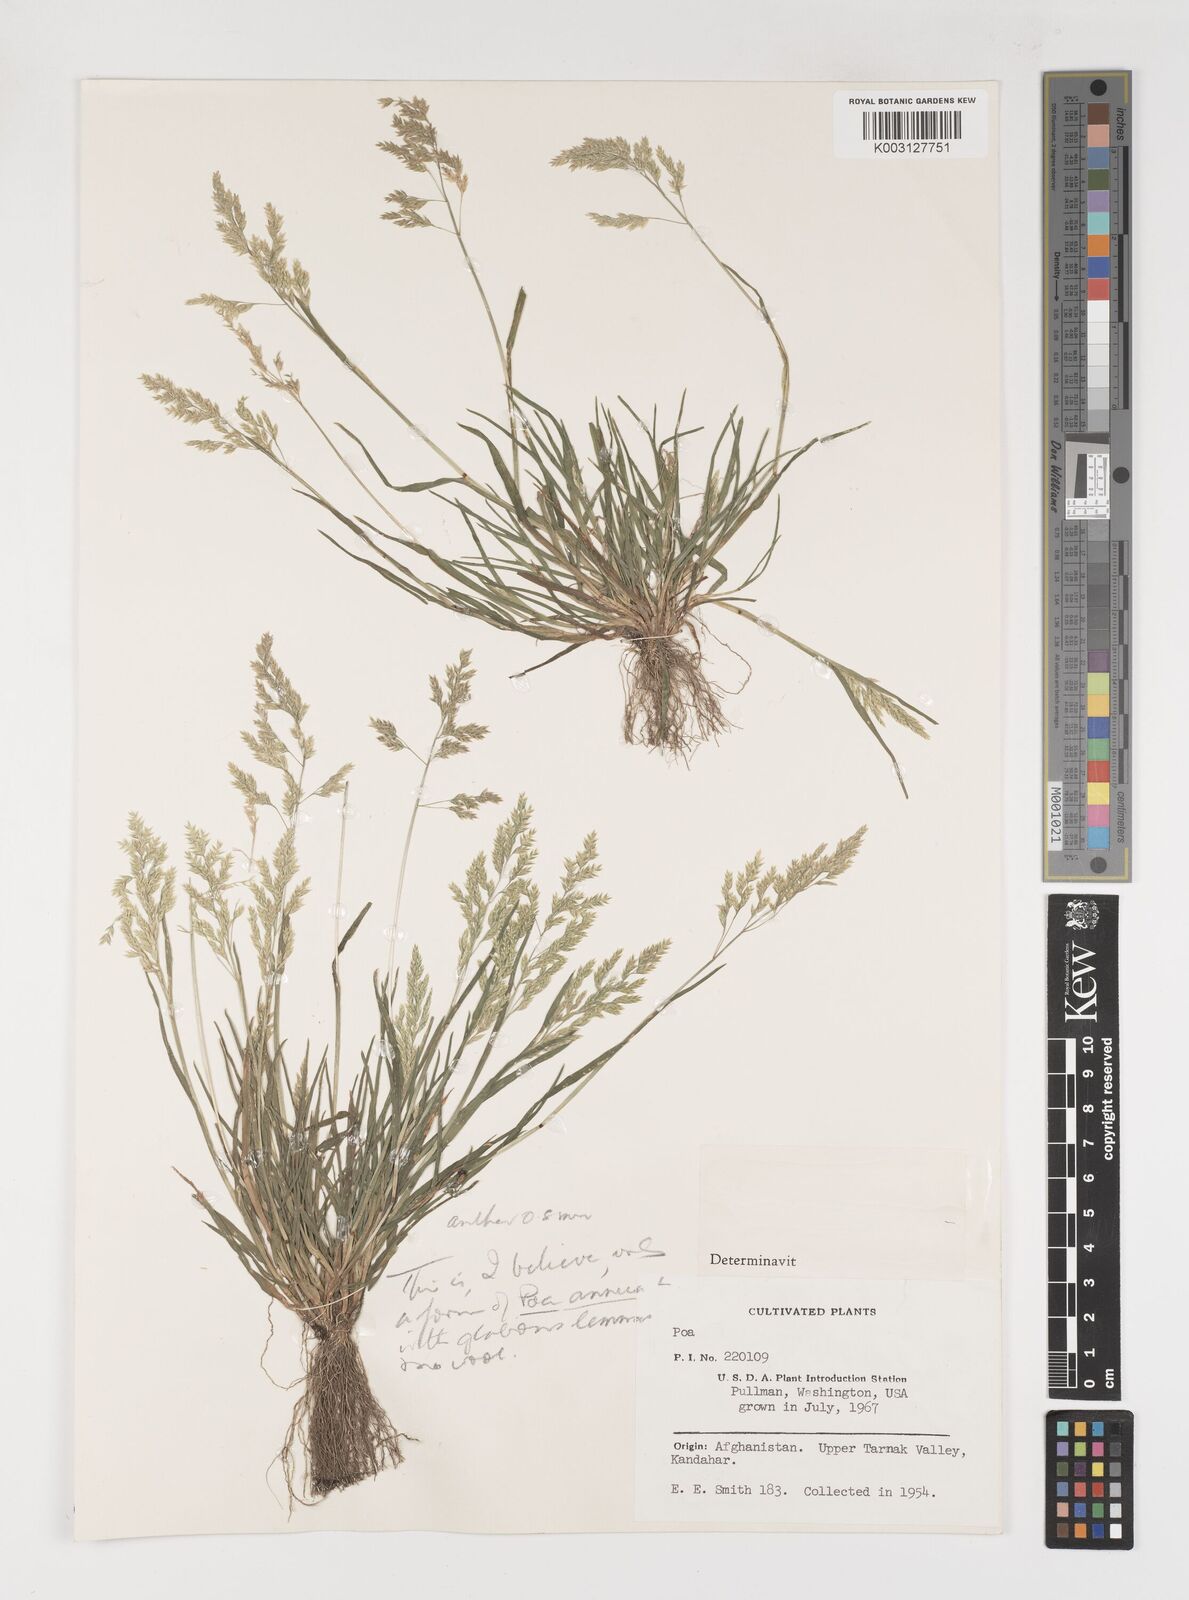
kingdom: Plantae
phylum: Tracheophyta
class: Liliopsida
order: Poales
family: Poaceae
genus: Poa
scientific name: Poa annua
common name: Annual bluegrass
